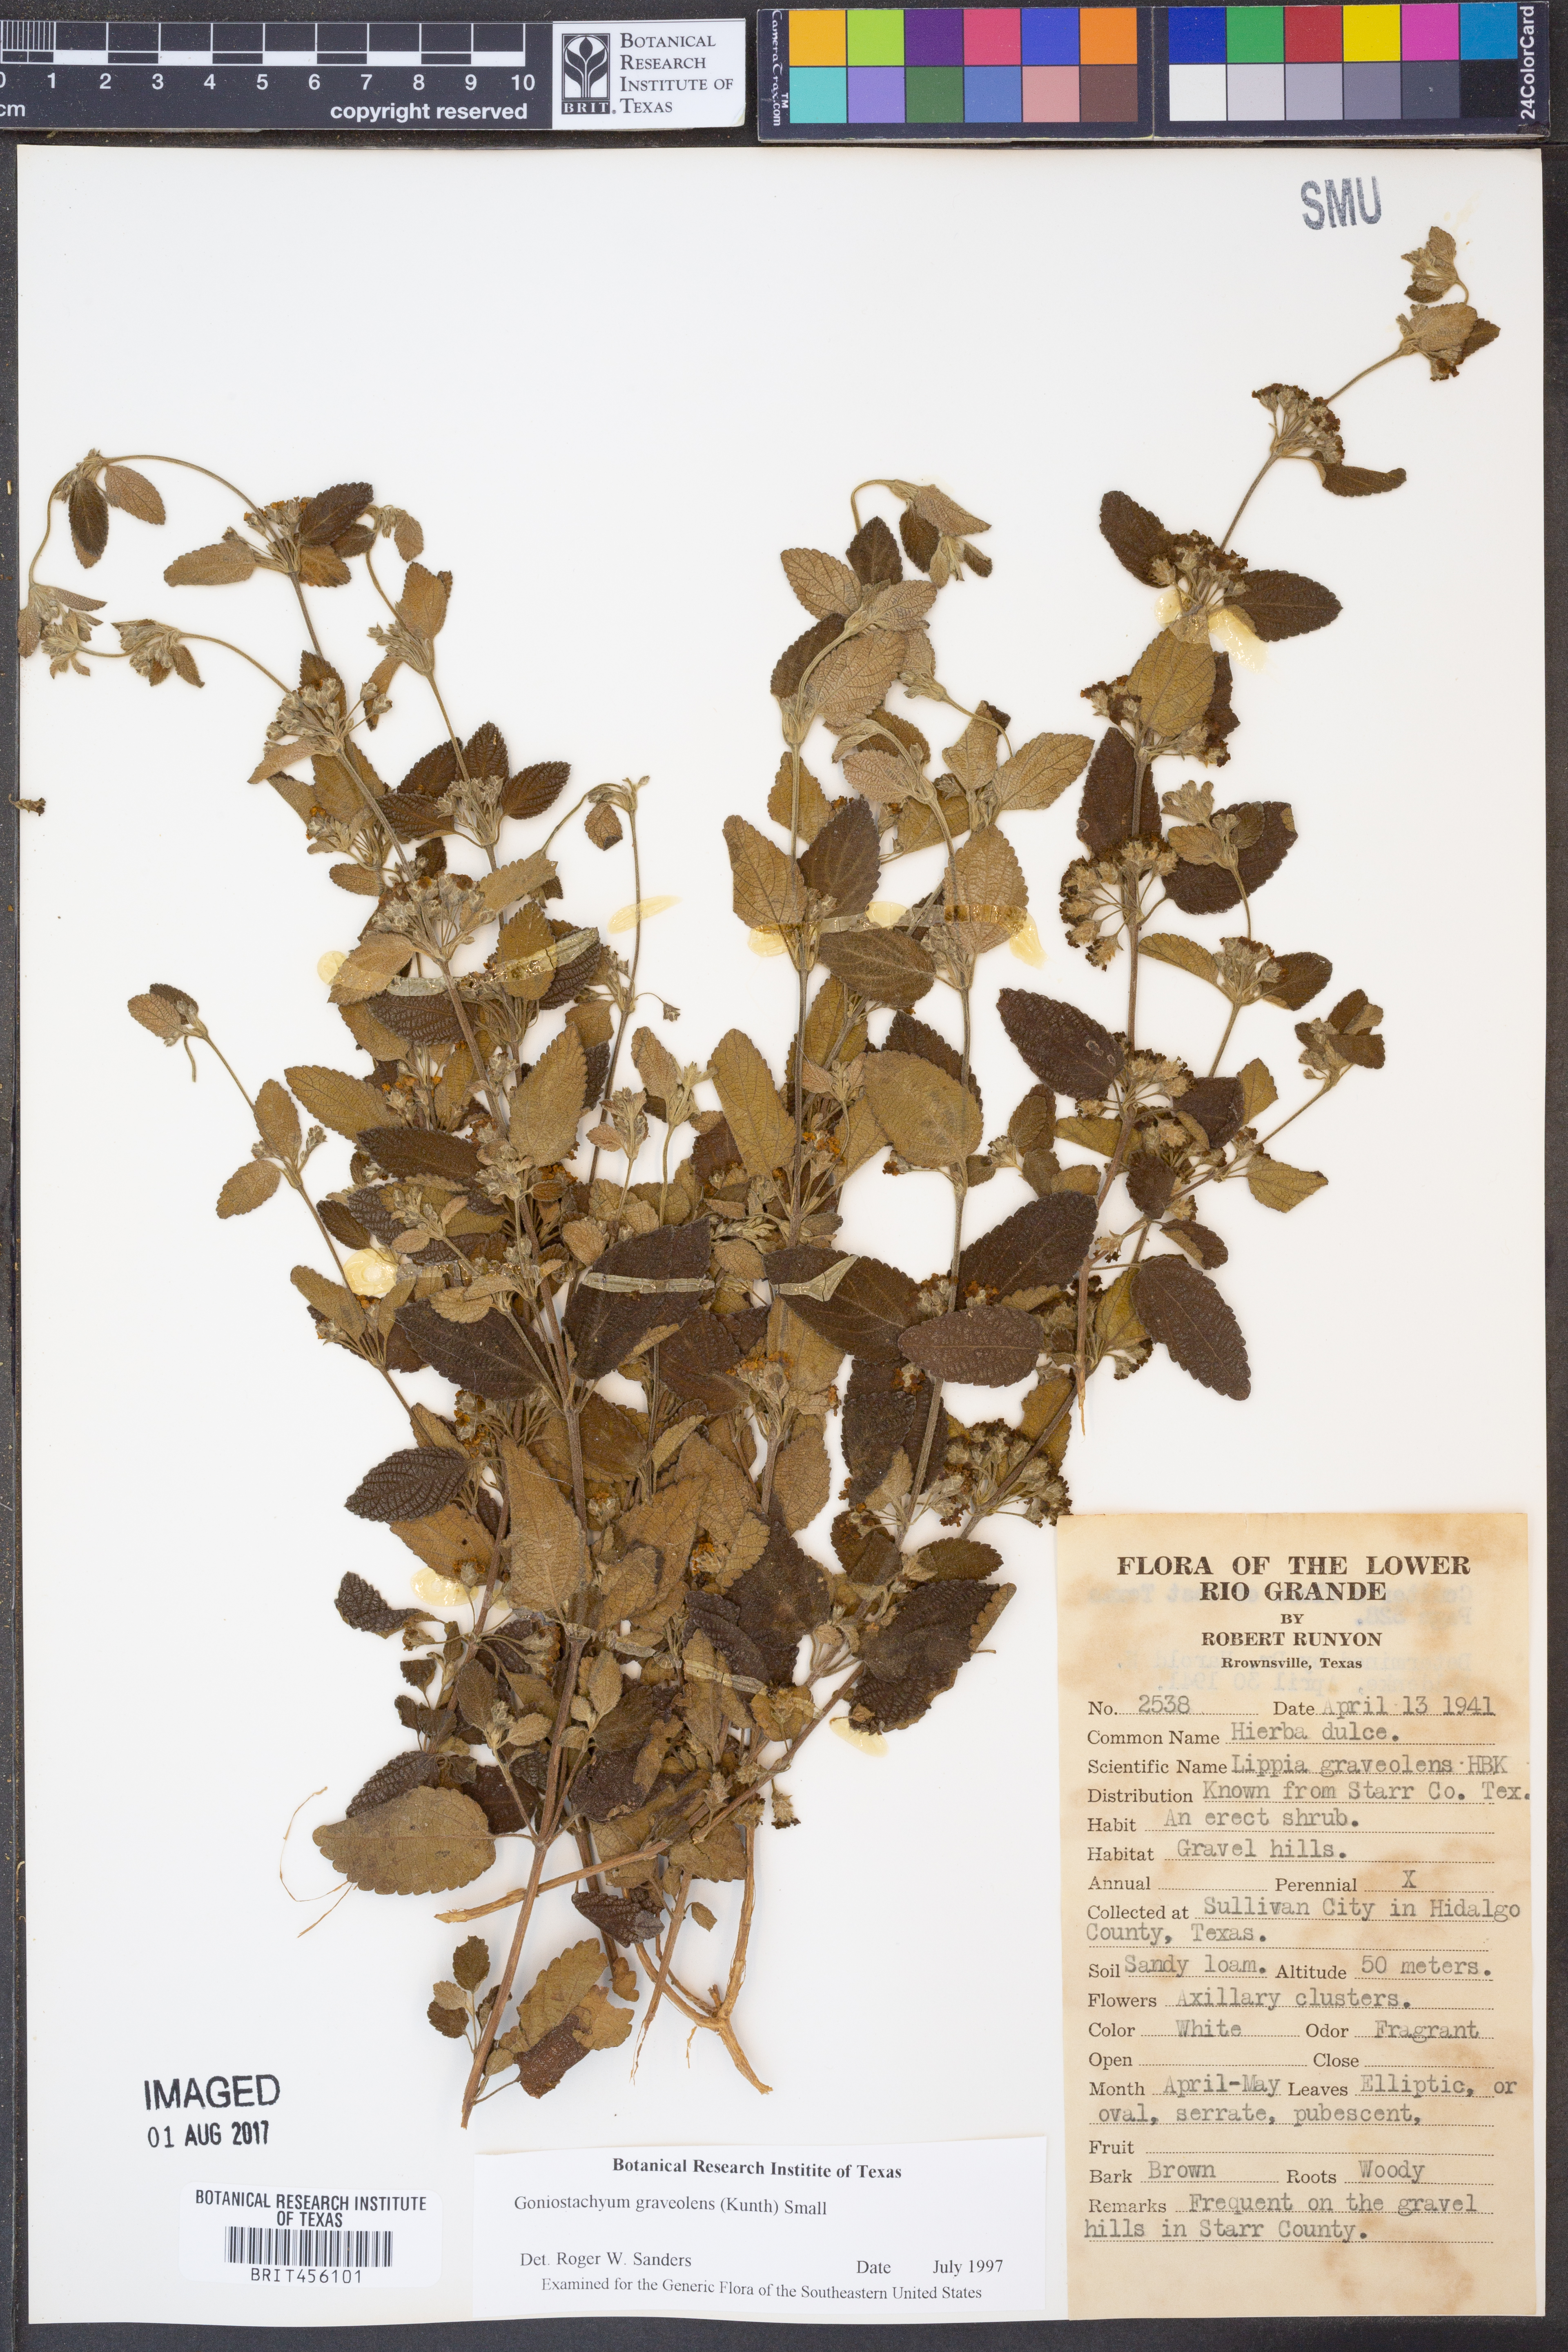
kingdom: Plantae
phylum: Tracheophyta
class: Magnoliopsida
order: Lamiales
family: Verbenaceae
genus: Lippia
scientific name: Lippia origanoides
